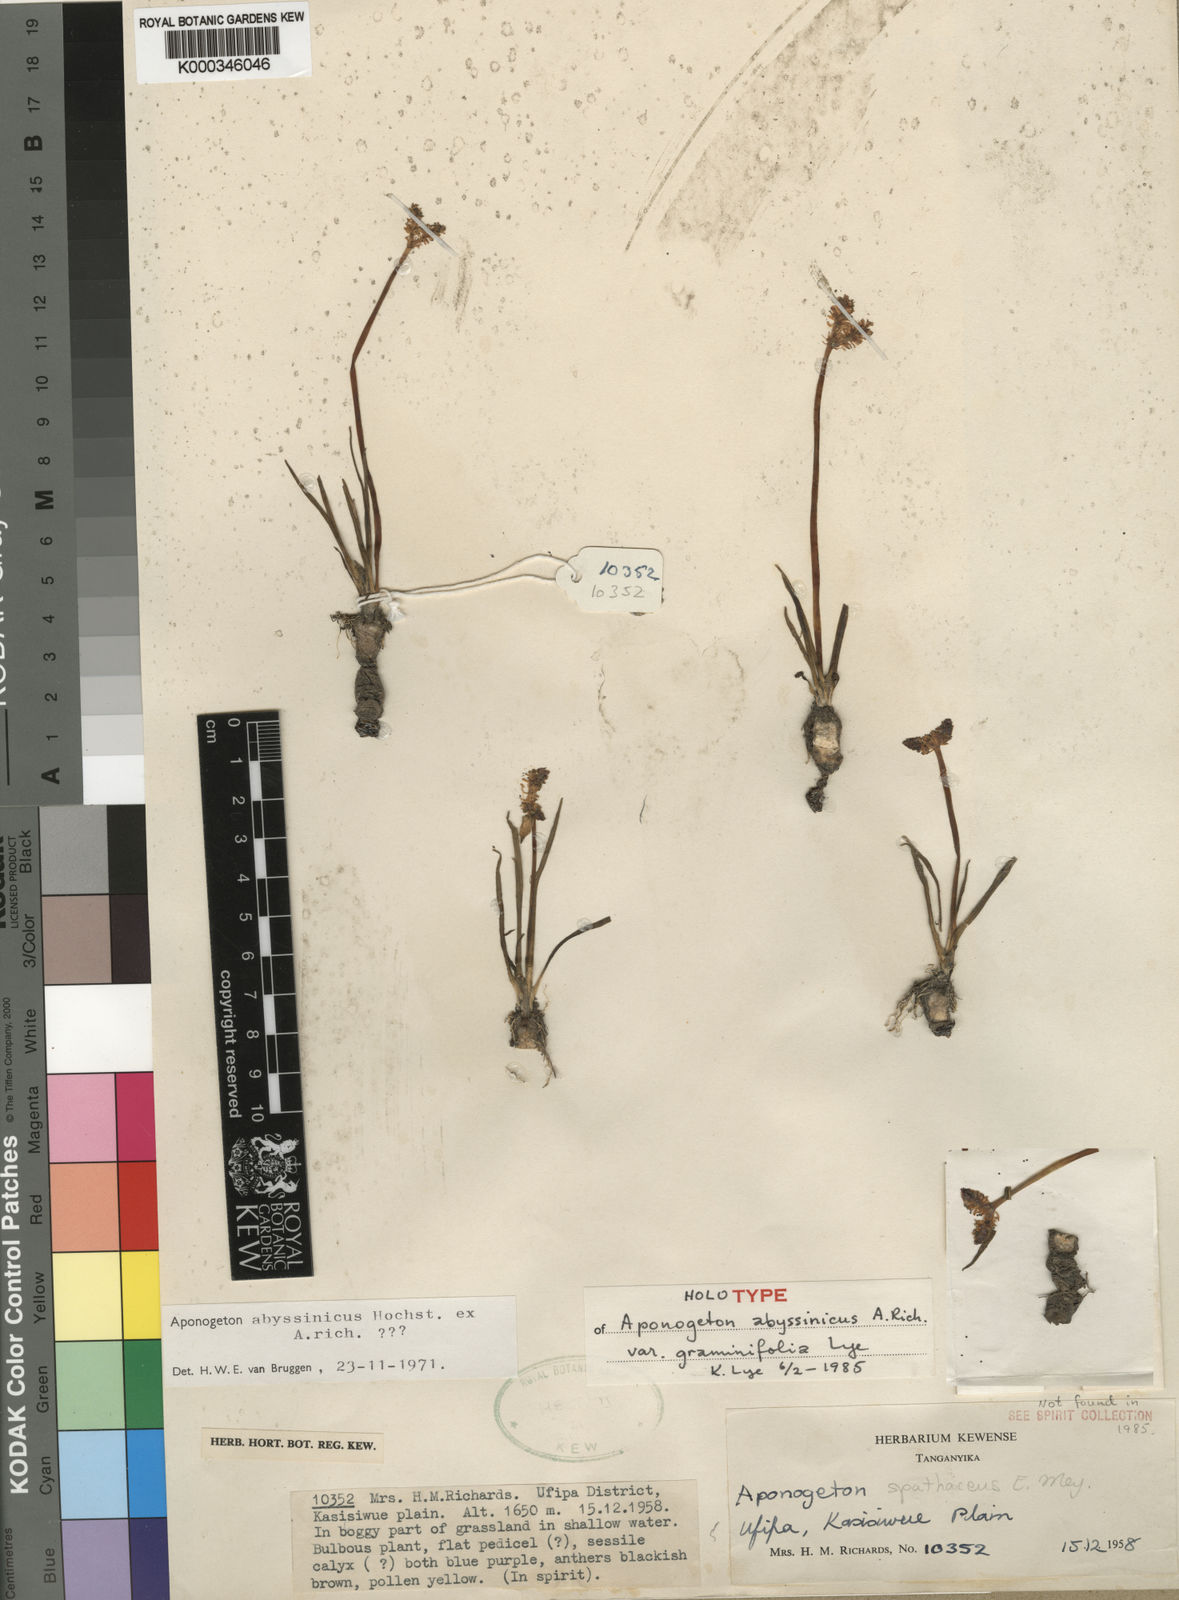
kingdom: Plantae
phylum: Tracheophyta
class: Liliopsida
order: Alismatales
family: Aponogetonaceae
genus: Aponogeton
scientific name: Aponogeton abyssinicus
